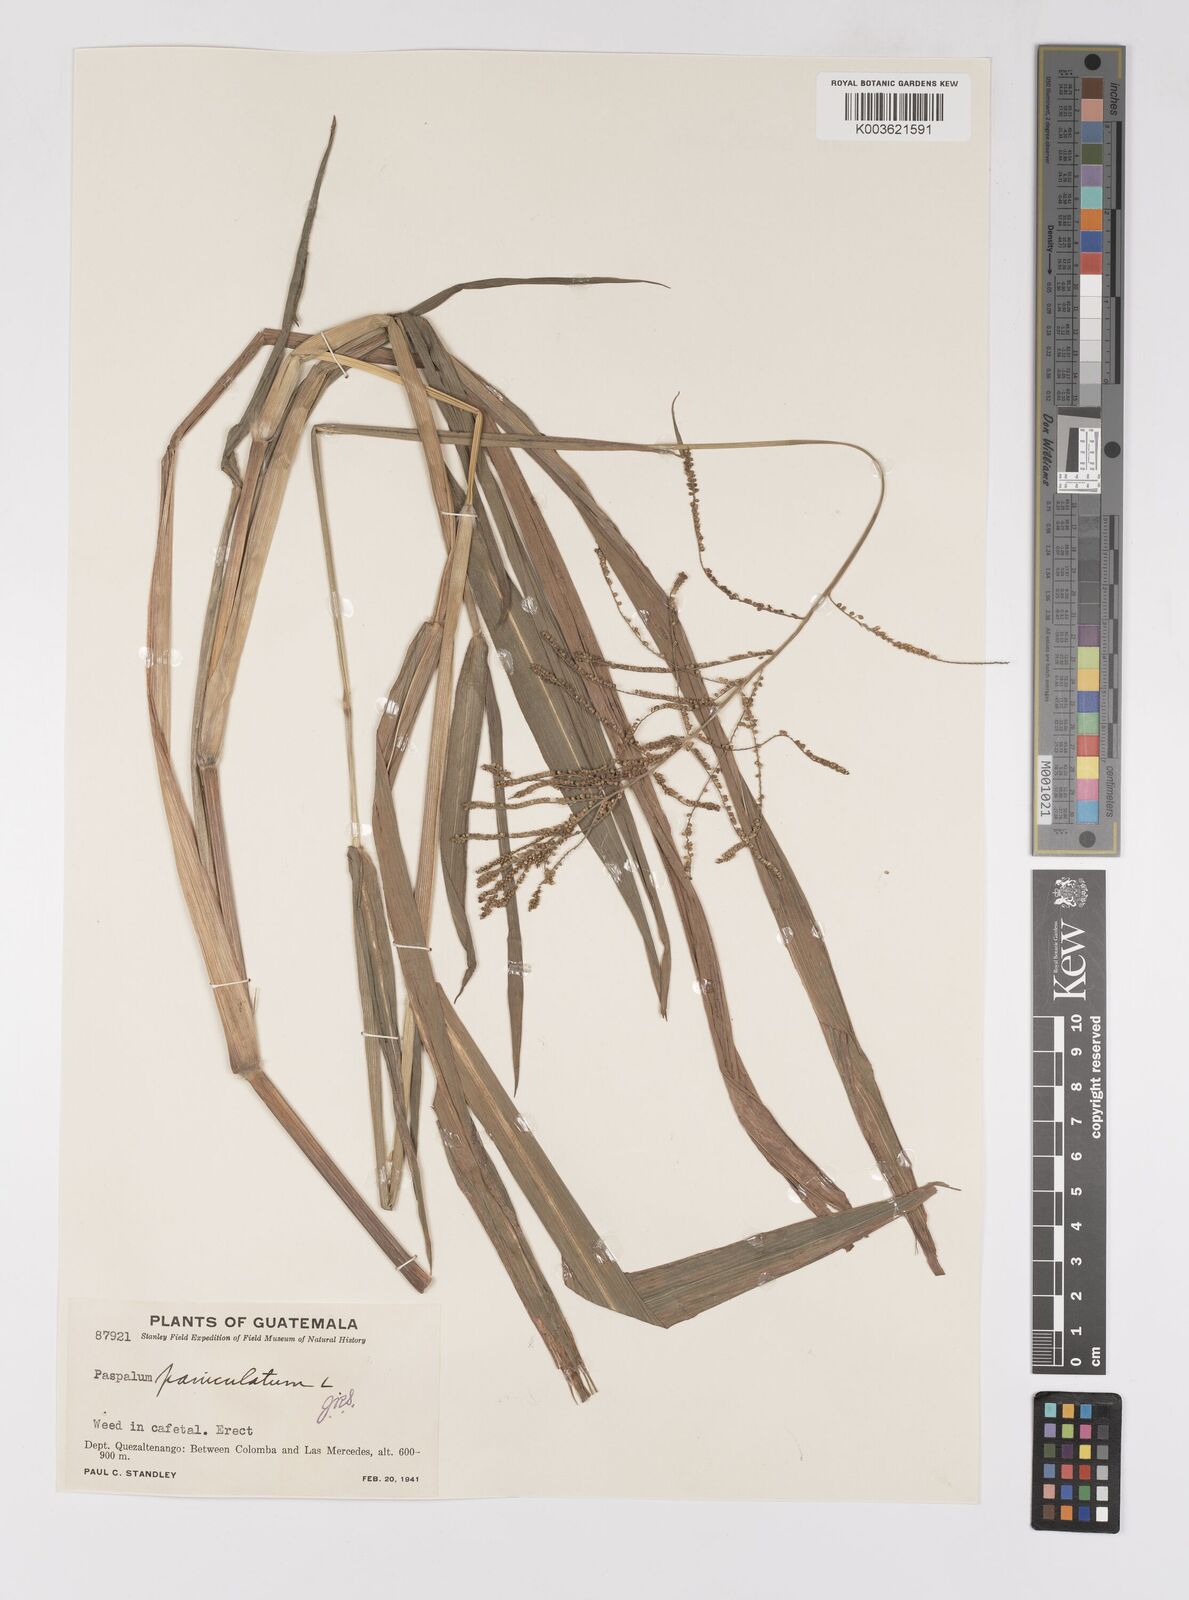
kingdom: Plantae
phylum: Tracheophyta
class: Liliopsida
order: Poales
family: Poaceae
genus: Paspalum
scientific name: Paspalum paniculatum
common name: Arrocillo
